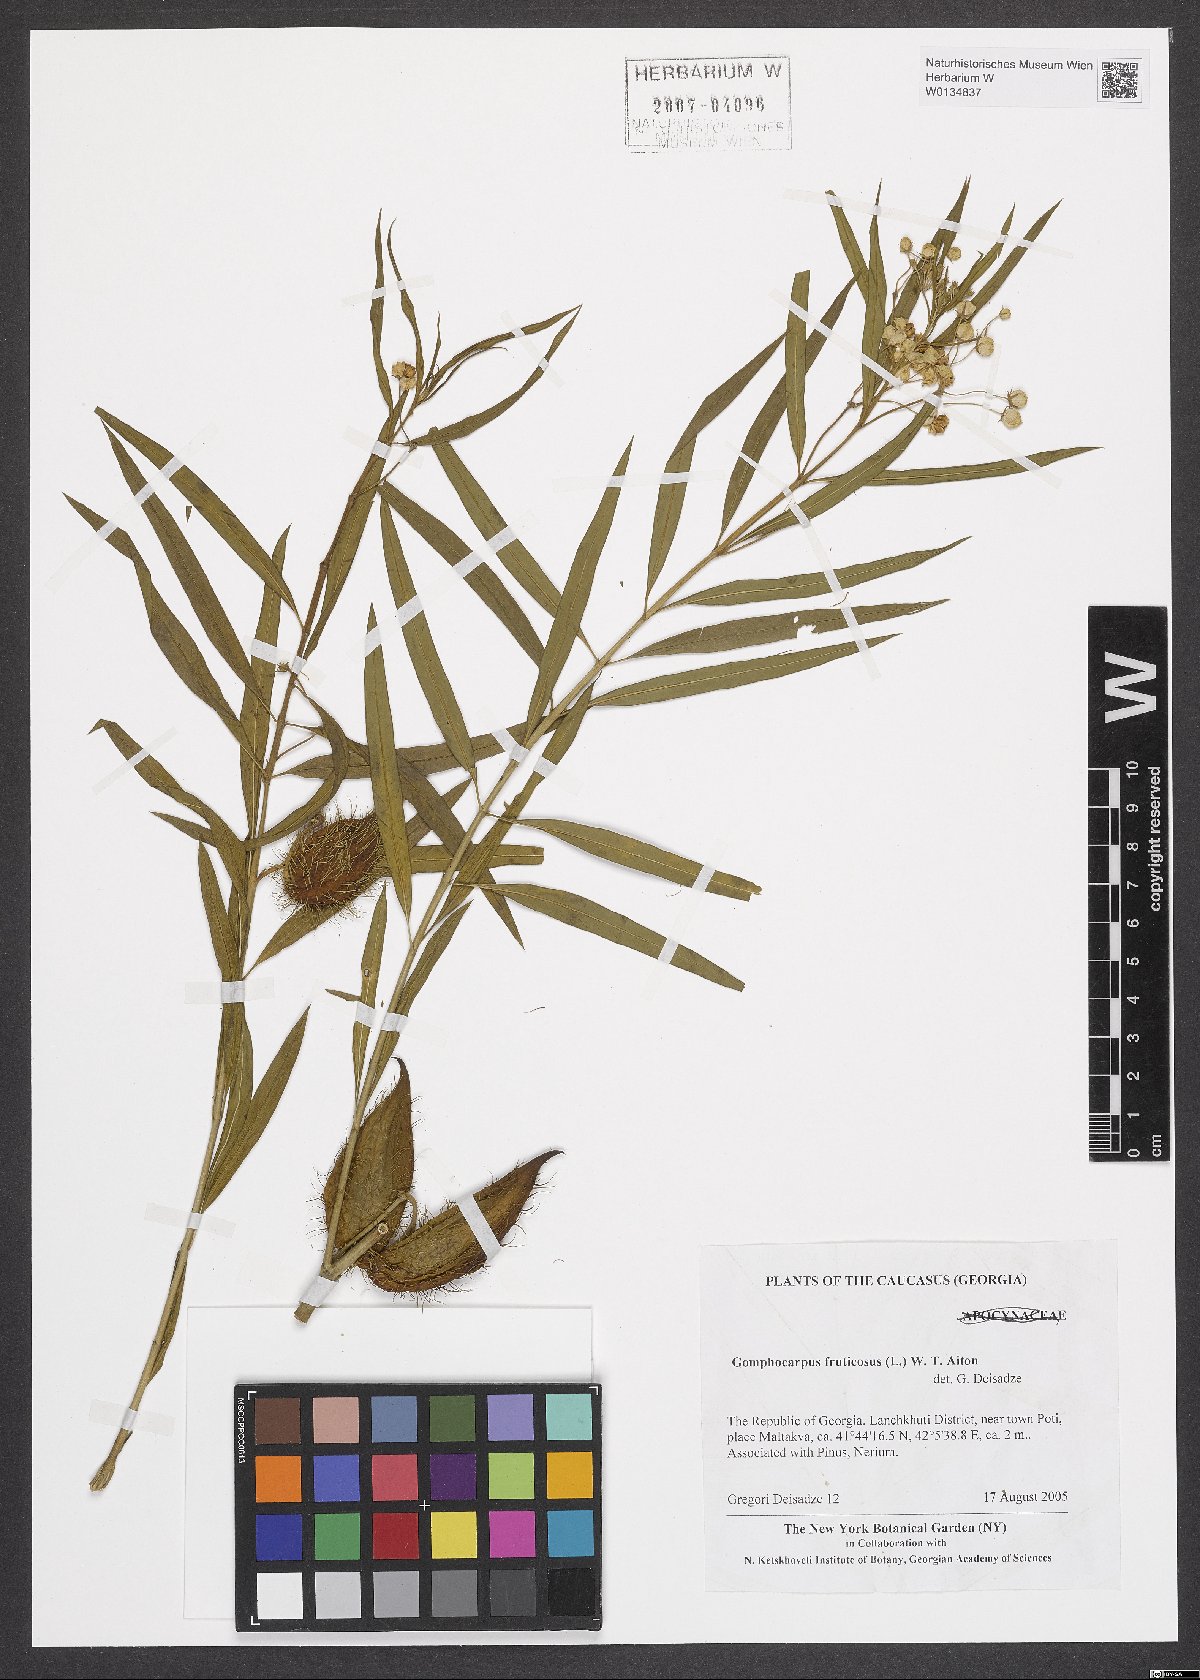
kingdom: Plantae
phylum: Tracheophyta
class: Magnoliopsida
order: Gentianales
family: Apocynaceae
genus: Gomphocarpus
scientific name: Gomphocarpus fruticosus
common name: Milkweed
